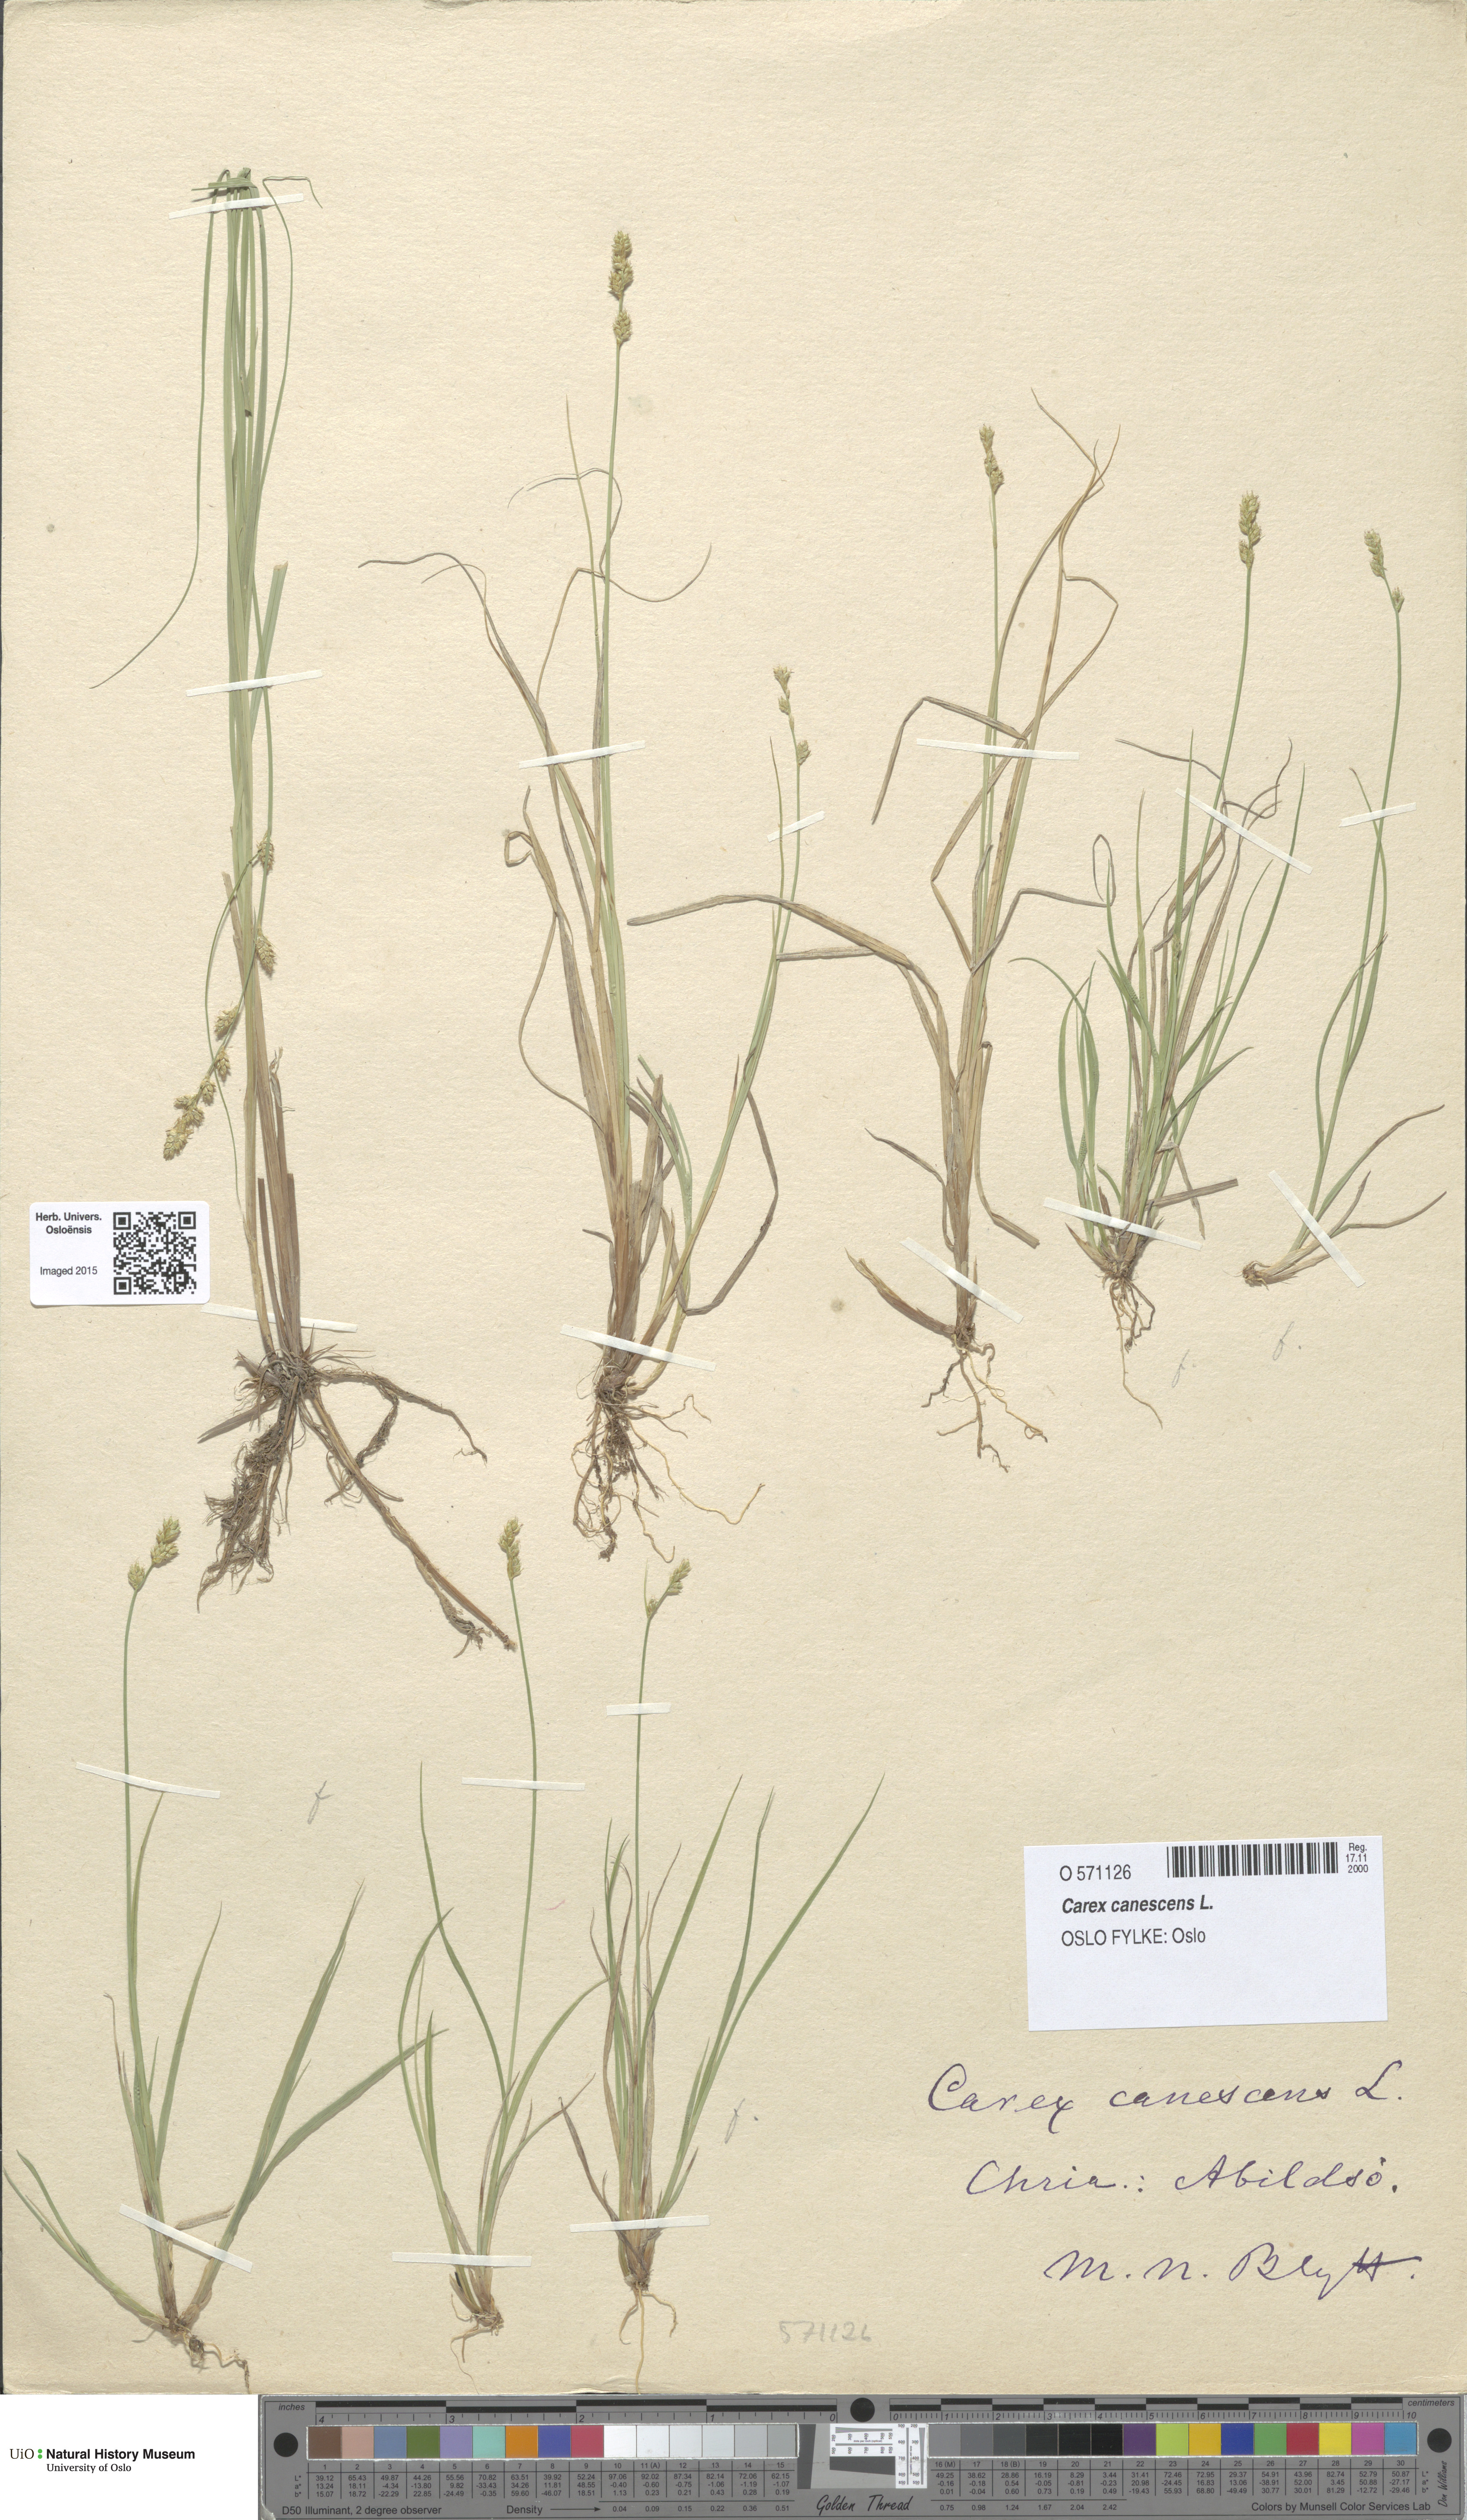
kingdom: Plantae
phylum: Tracheophyta
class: Liliopsida
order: Poales
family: Cyperaceae
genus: Carex
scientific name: Carex canescens
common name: White sedge
